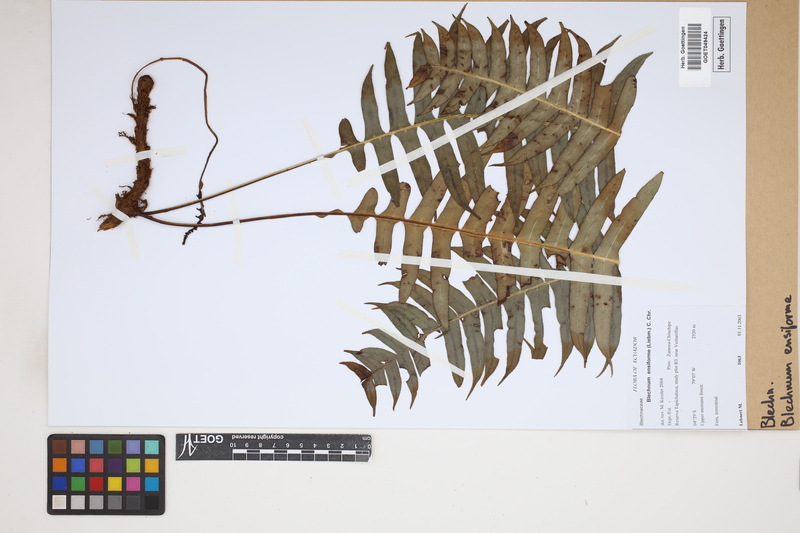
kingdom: Plantae
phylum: Tracheophyta
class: Polypodiopsida
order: Polypodiales
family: Blechnaceae
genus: Lomaridium
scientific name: Lomaridium ensiforme
